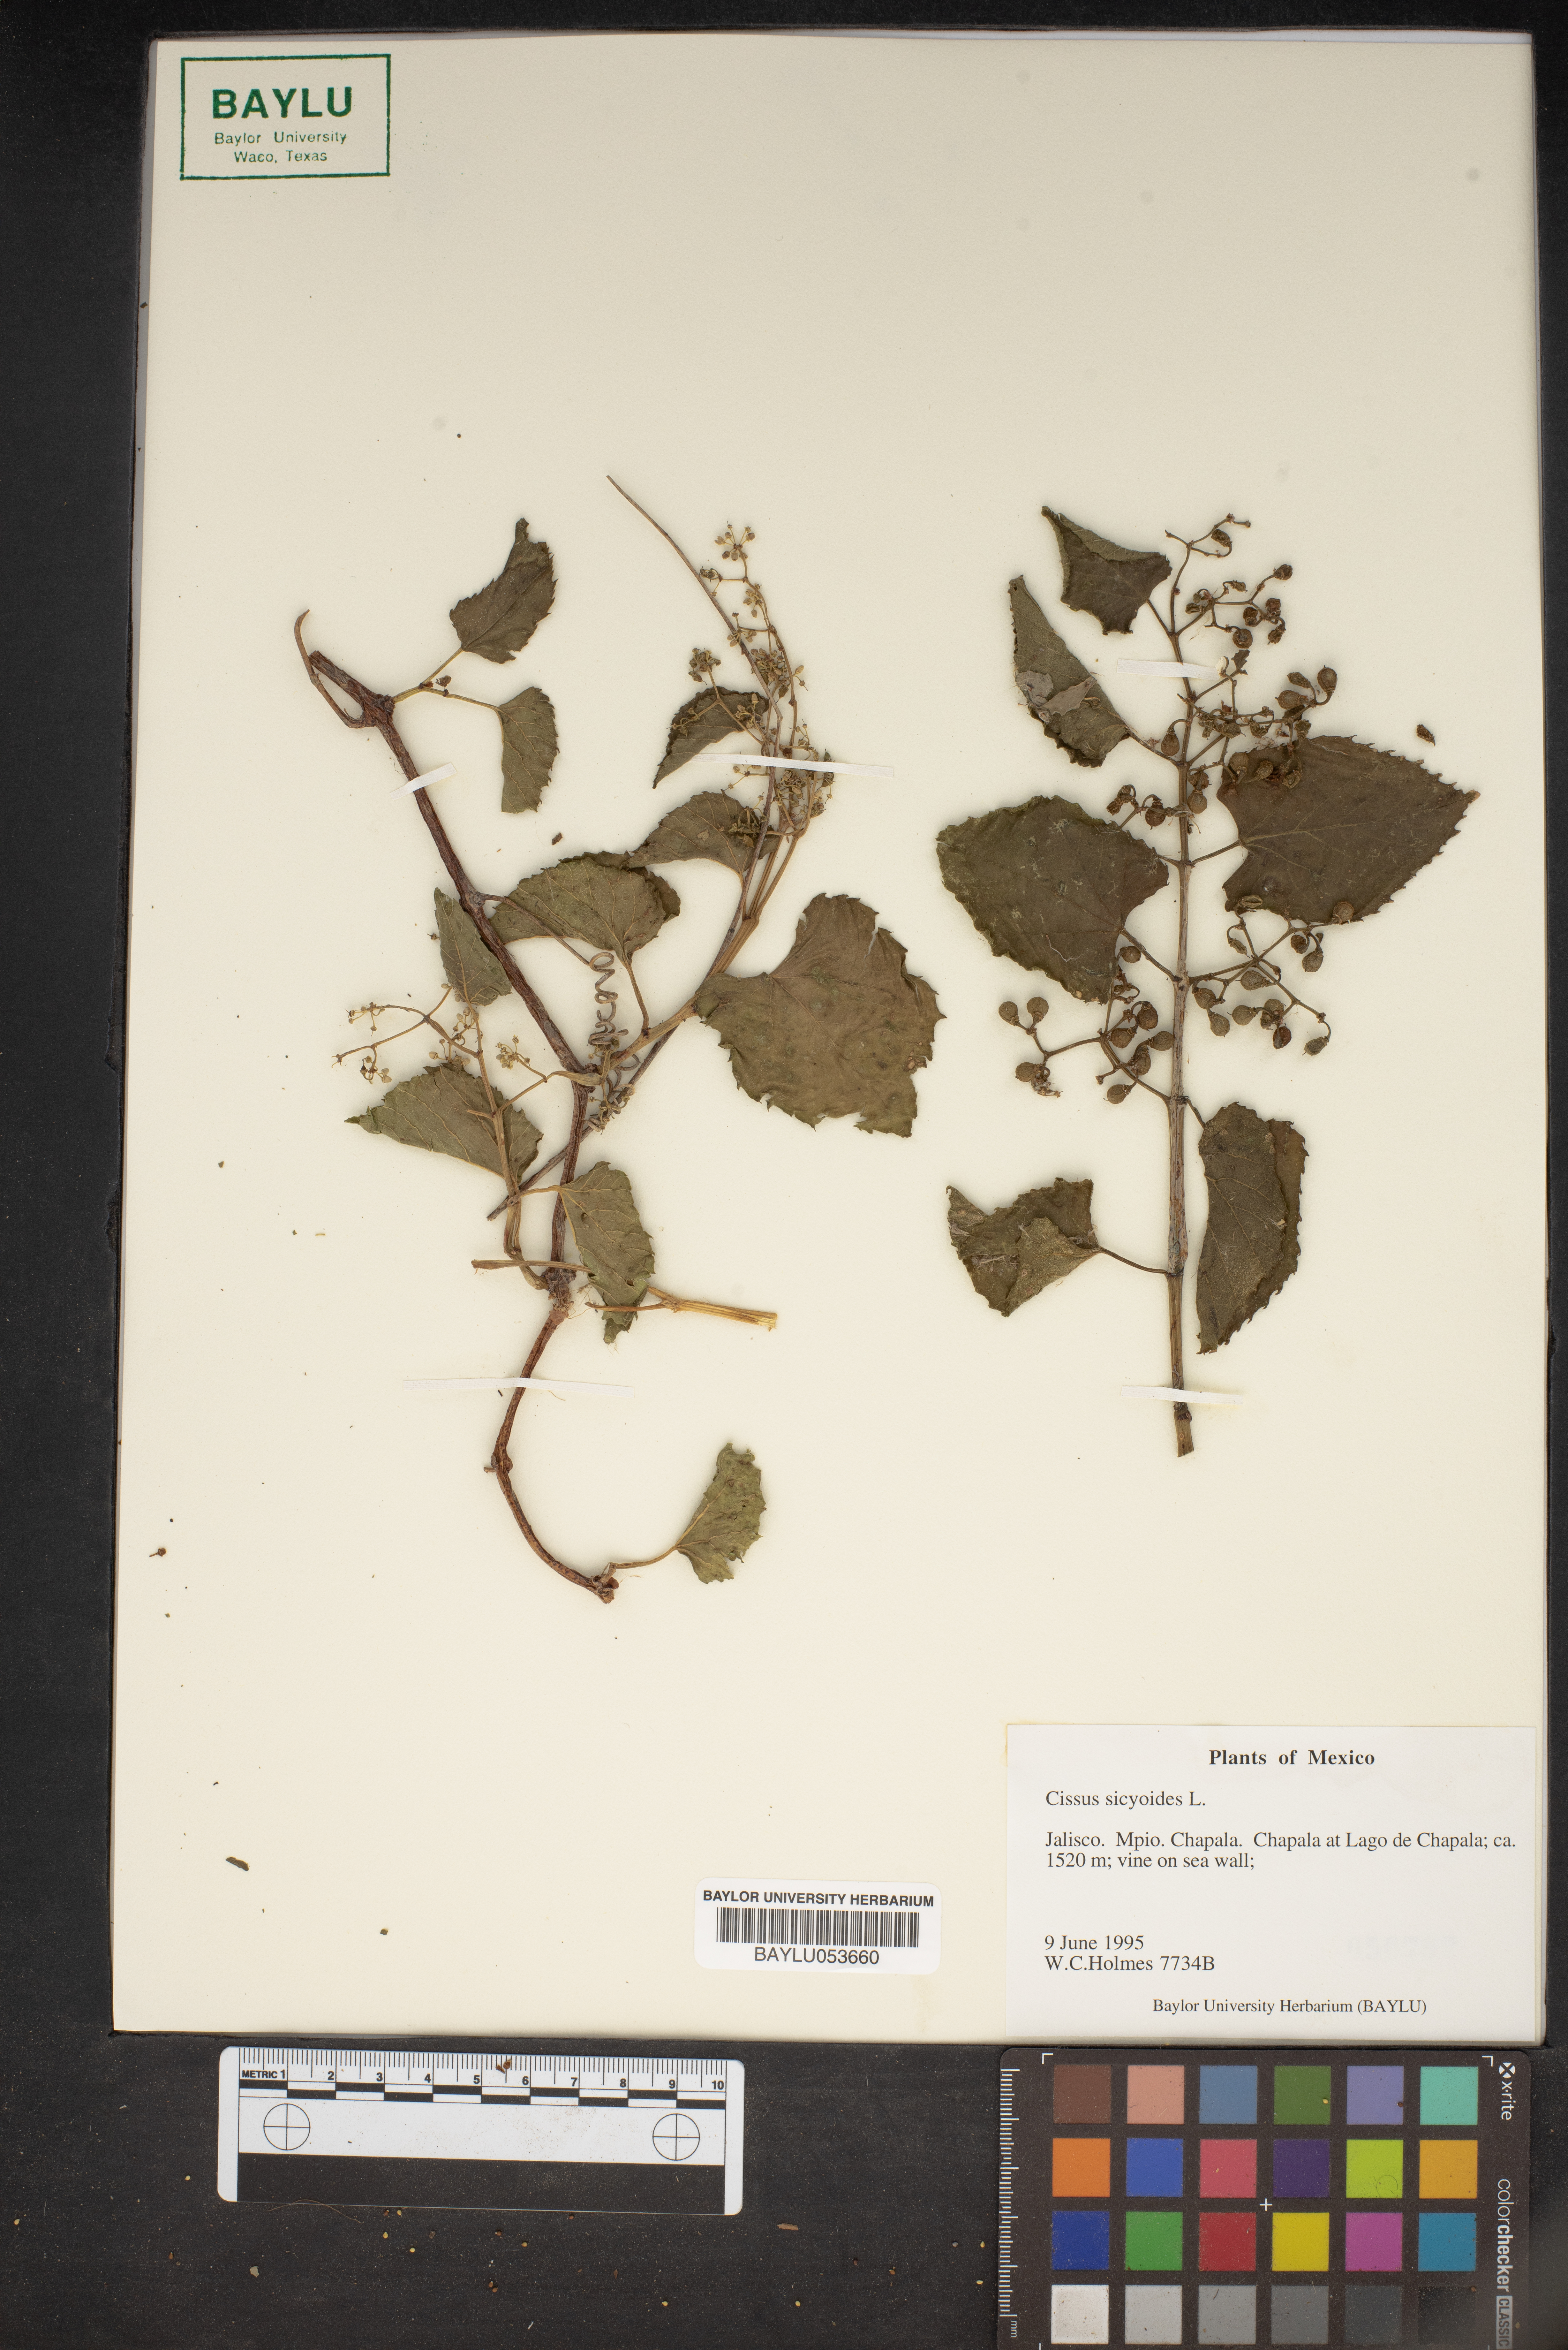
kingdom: Plantae
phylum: Tracheophyta
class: Magnoliopsida
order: Vitales
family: Vitaceae
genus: Cissus
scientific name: Cissus verticillata
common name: Princess vine
